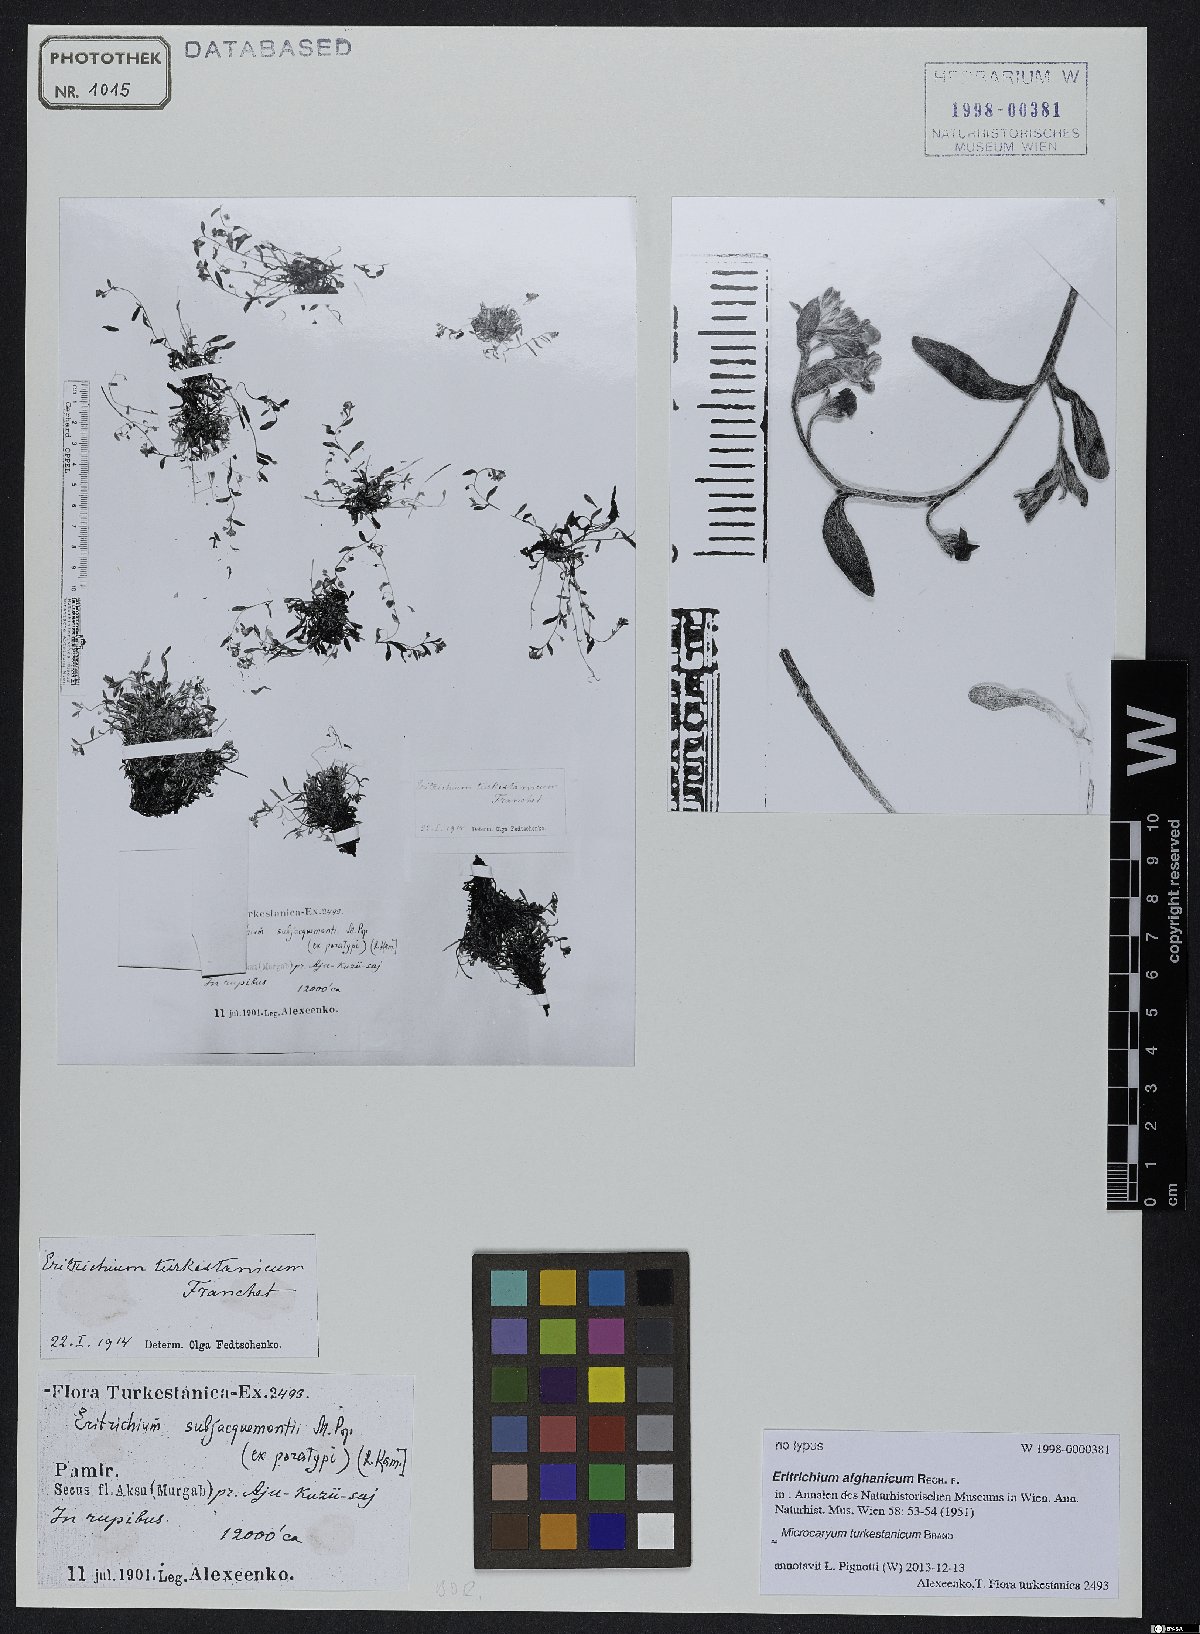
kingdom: Plantae
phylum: Tracheophyta
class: Magnoliopsida
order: Boraginales
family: Boraginaceae
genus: Microcaryum
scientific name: Microcaryum turkestanicum
